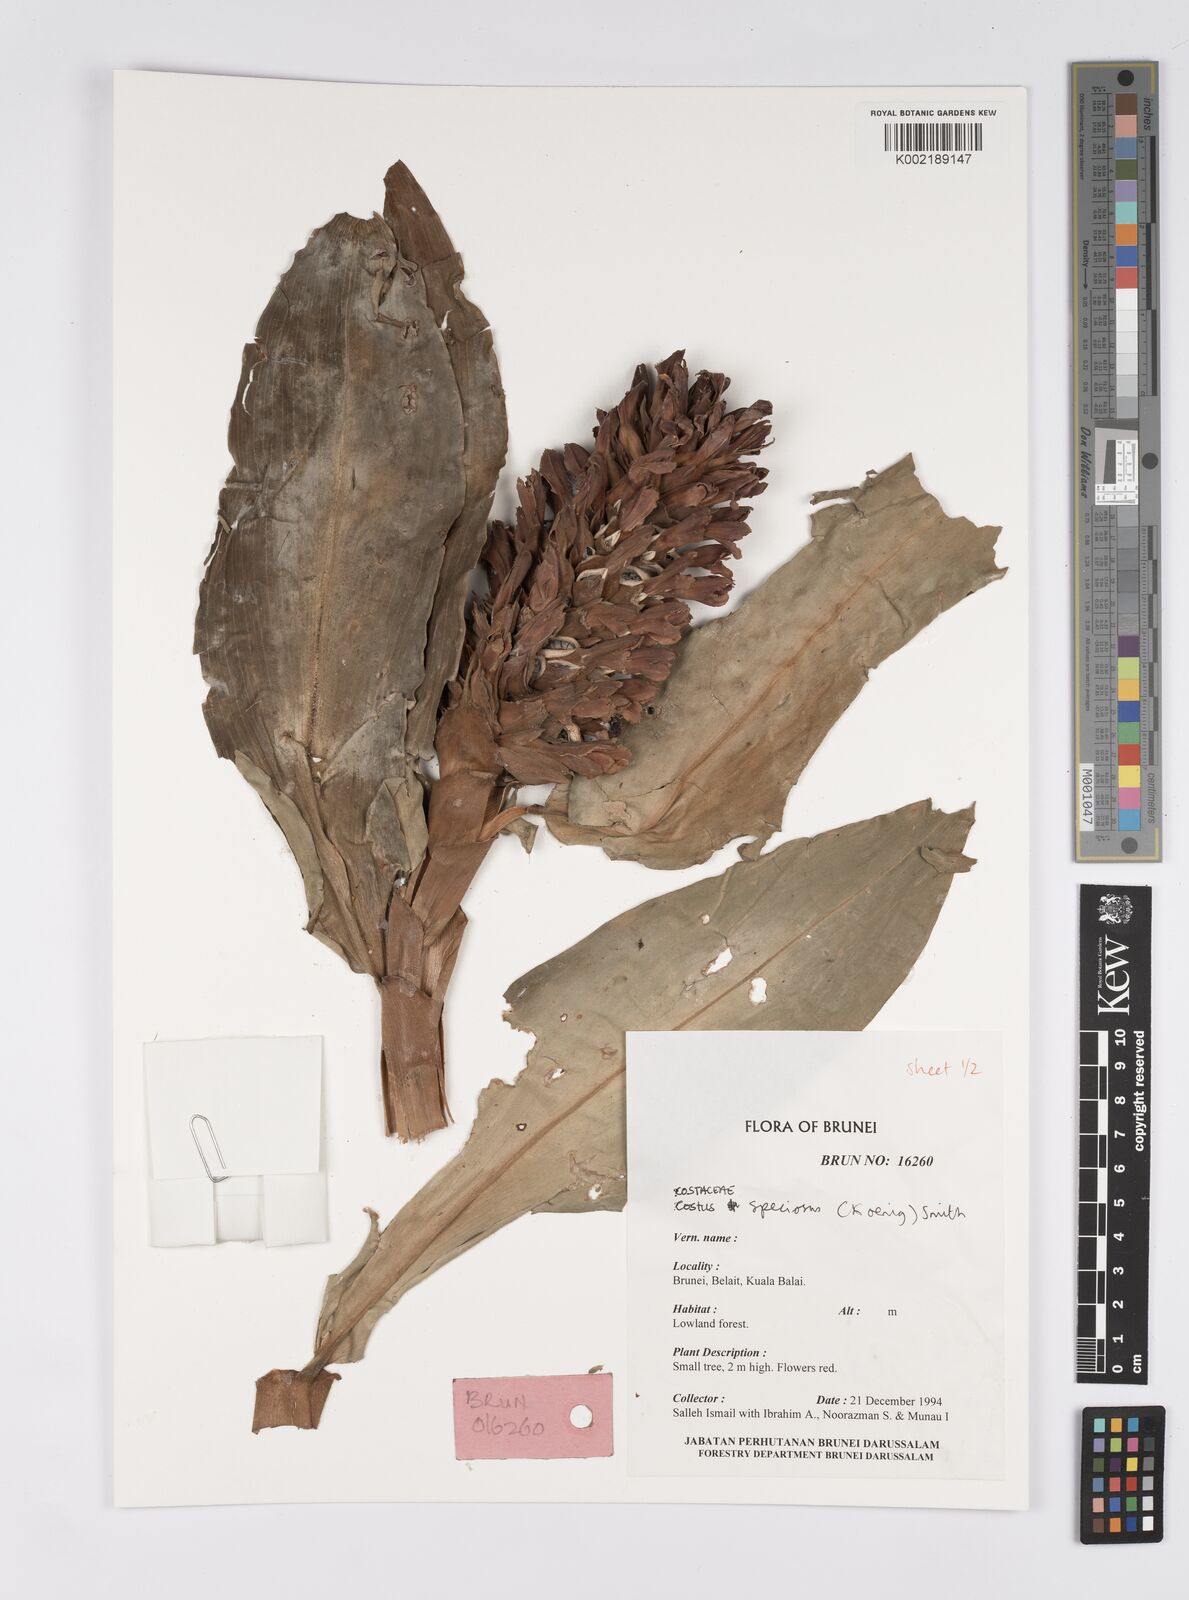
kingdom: Plantae
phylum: Tracheophyta
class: Liliopsida
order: Zingiberales
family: Costaceae
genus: Hellenia
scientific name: Hellenia speciosa
